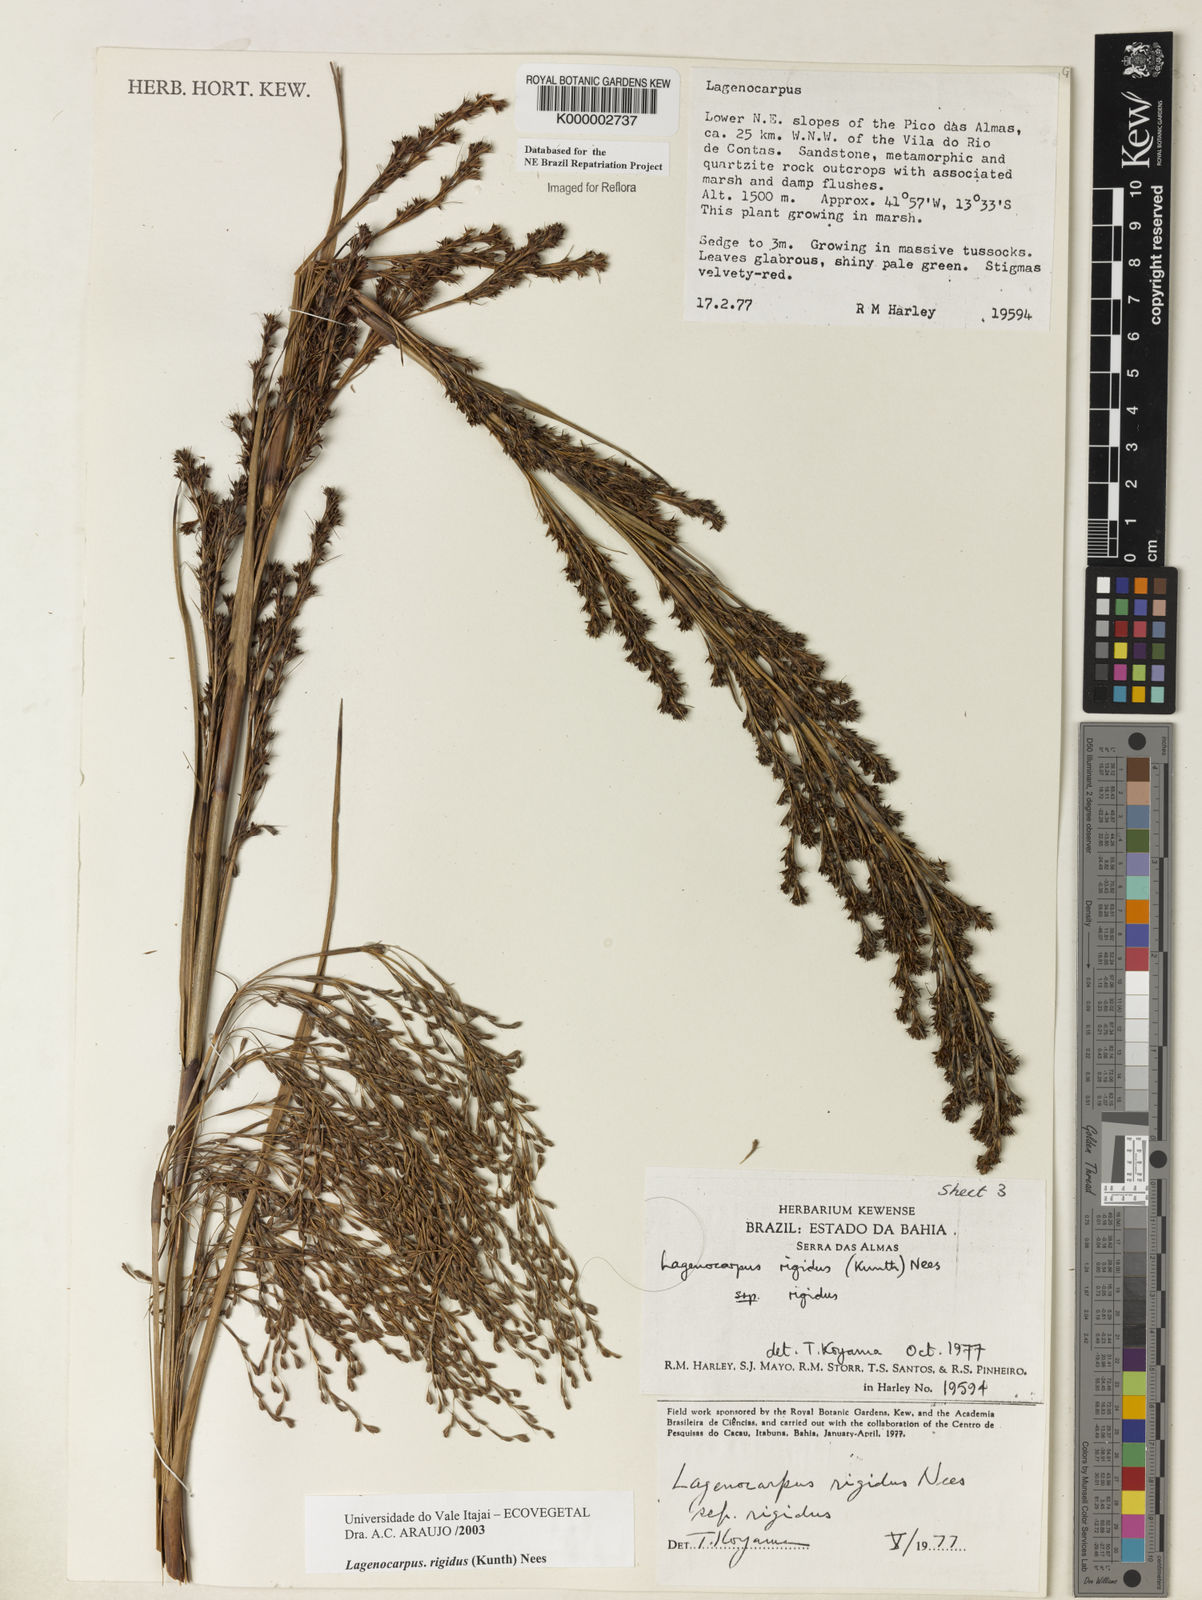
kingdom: Plantae
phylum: Tracheophyta
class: Liliopsida
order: Poales
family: Cyperaceae
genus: Lagenocarpus
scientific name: Lagenocarpus rigidus
